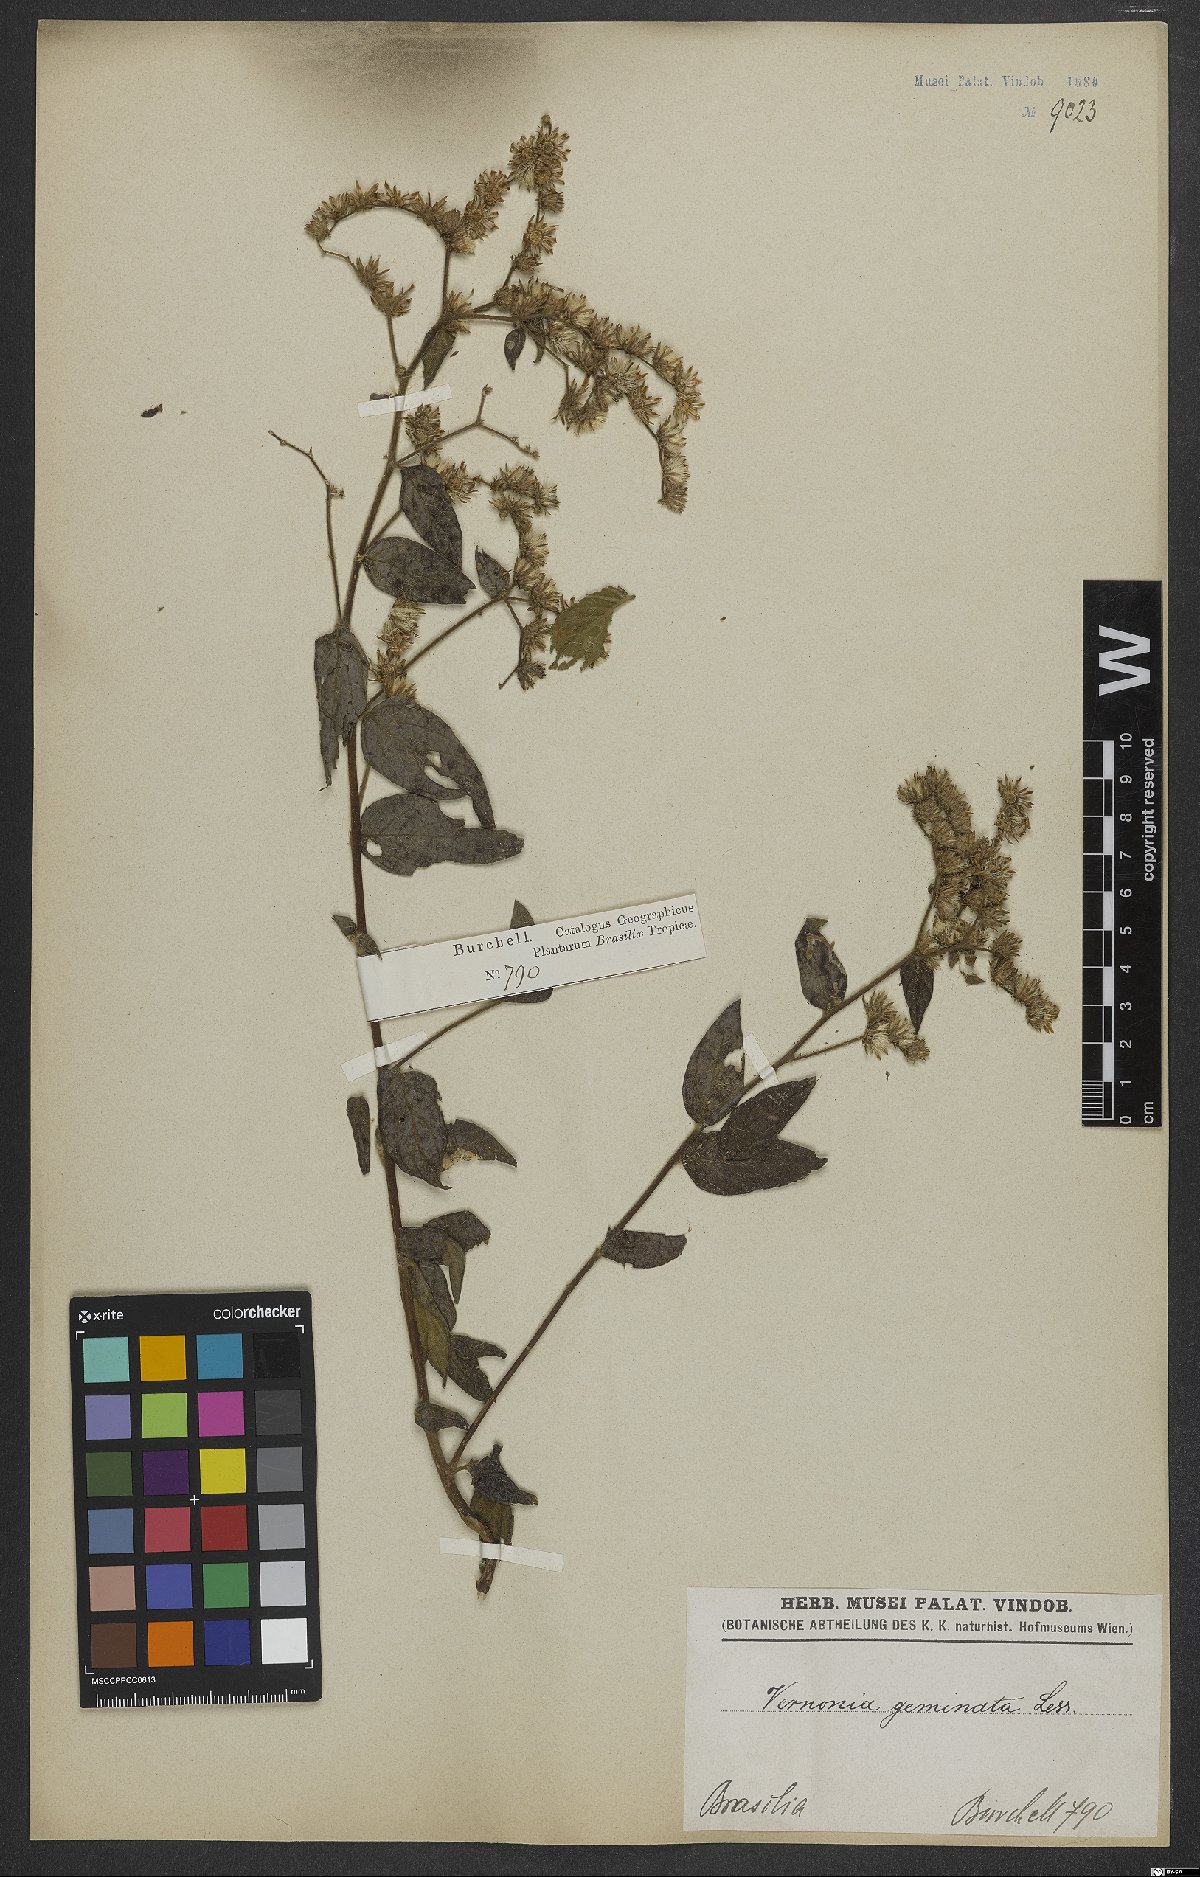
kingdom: Plantae
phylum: Tracheophyta
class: Magnoliopsida
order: Asterales
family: Asteraceae
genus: Lepidaploa
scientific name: Lepidaploa subsquarrosa
